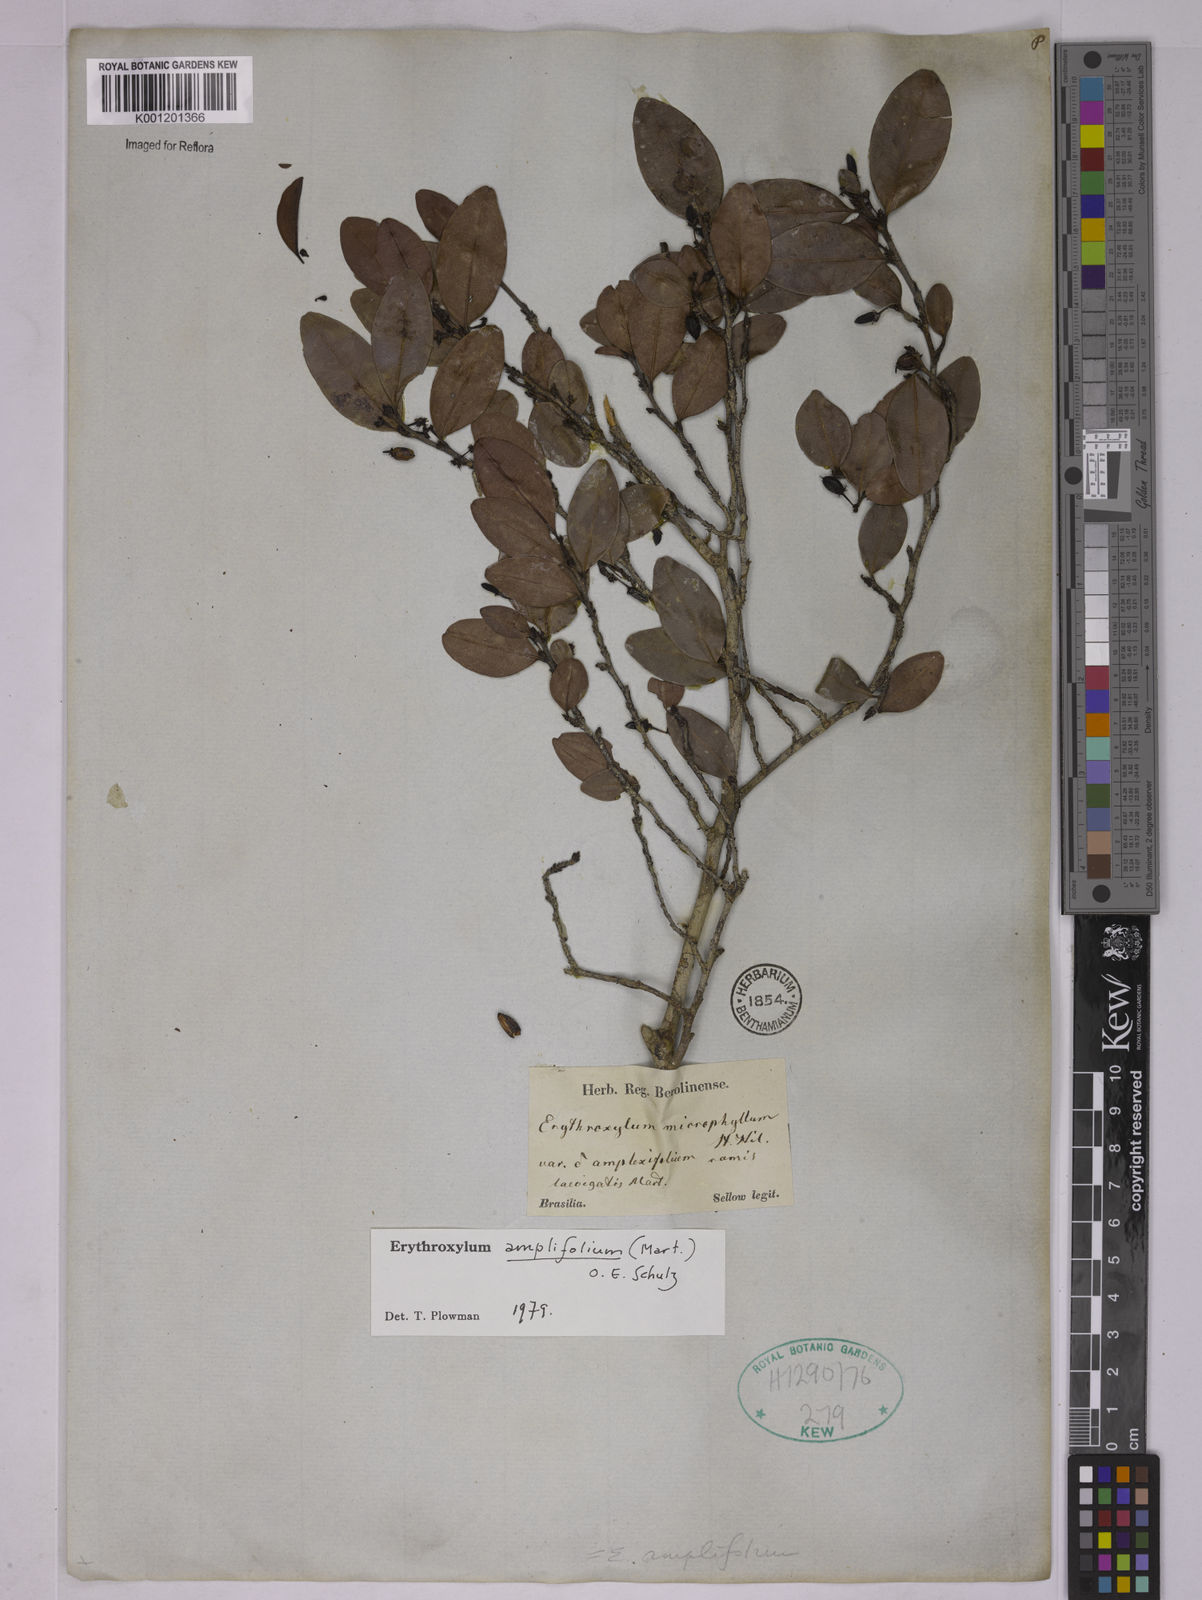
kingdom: Plantae
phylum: Tracheophyta
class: Magnoliopsida
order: Malpighiales
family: Erythroxylaceae
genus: Erythroxylum
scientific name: Erythroxylum
